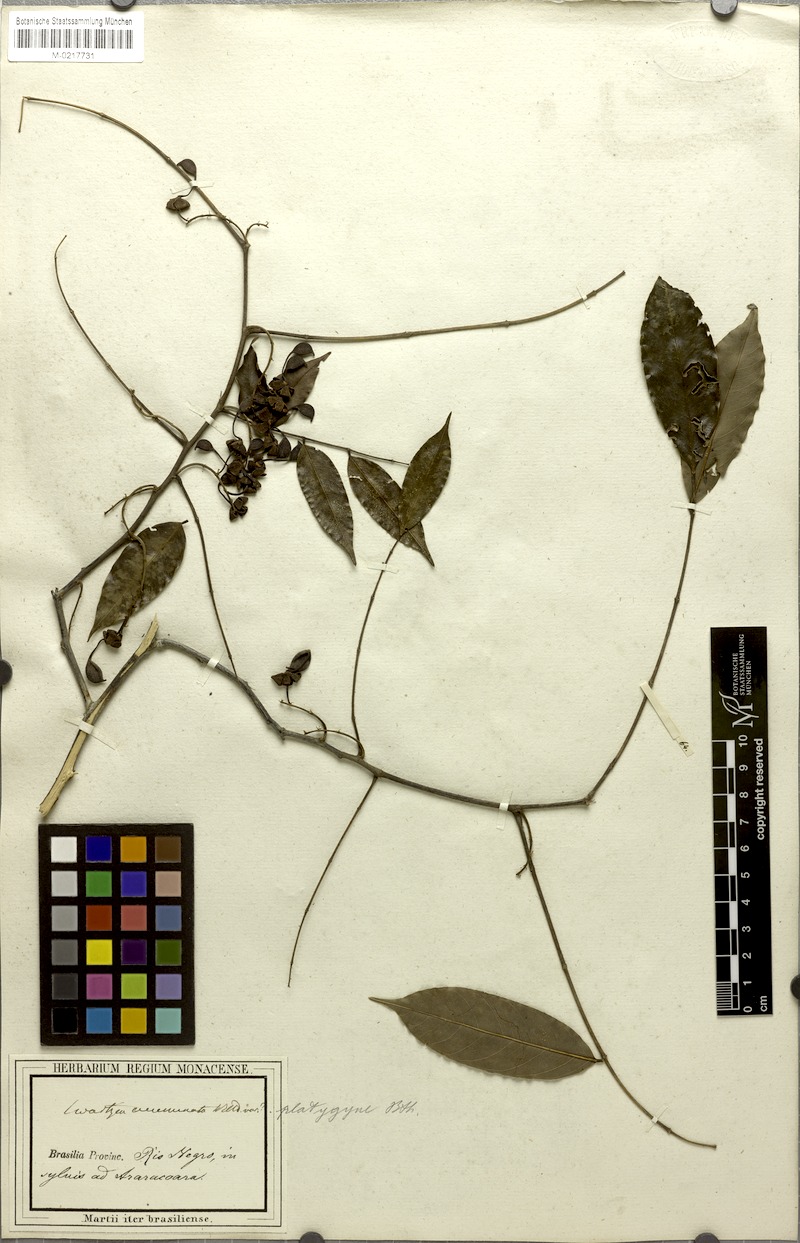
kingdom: Plantae
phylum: Tracheophyta
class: Magnoliopsida
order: Fabales
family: Fabaceae
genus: Swartzia
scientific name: Swartzia foliolosa
